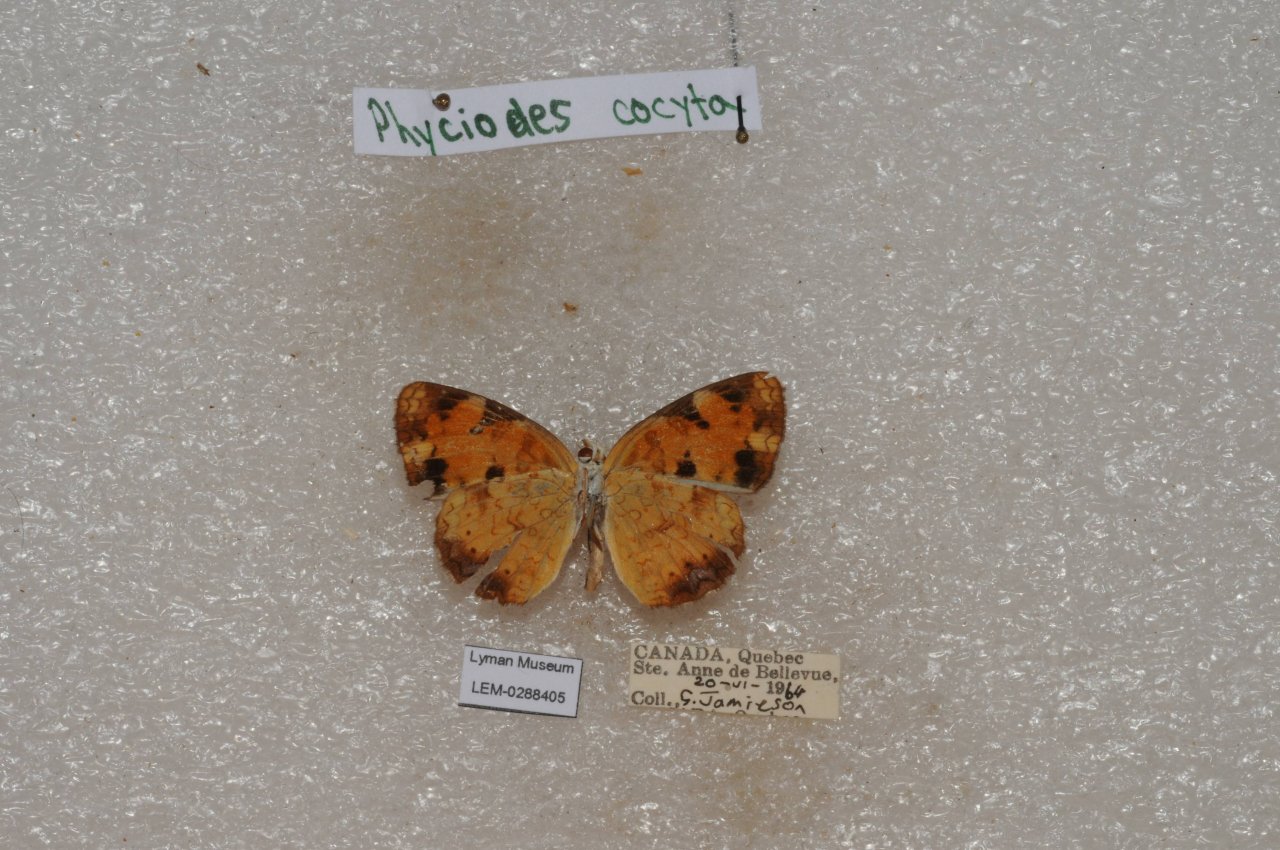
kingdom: Animalia
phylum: Arthropoda
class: Insecta
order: Lepidoptera
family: Nymphalidae
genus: Phyciodes
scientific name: Phyciodes tharos
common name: Northern Crescent
